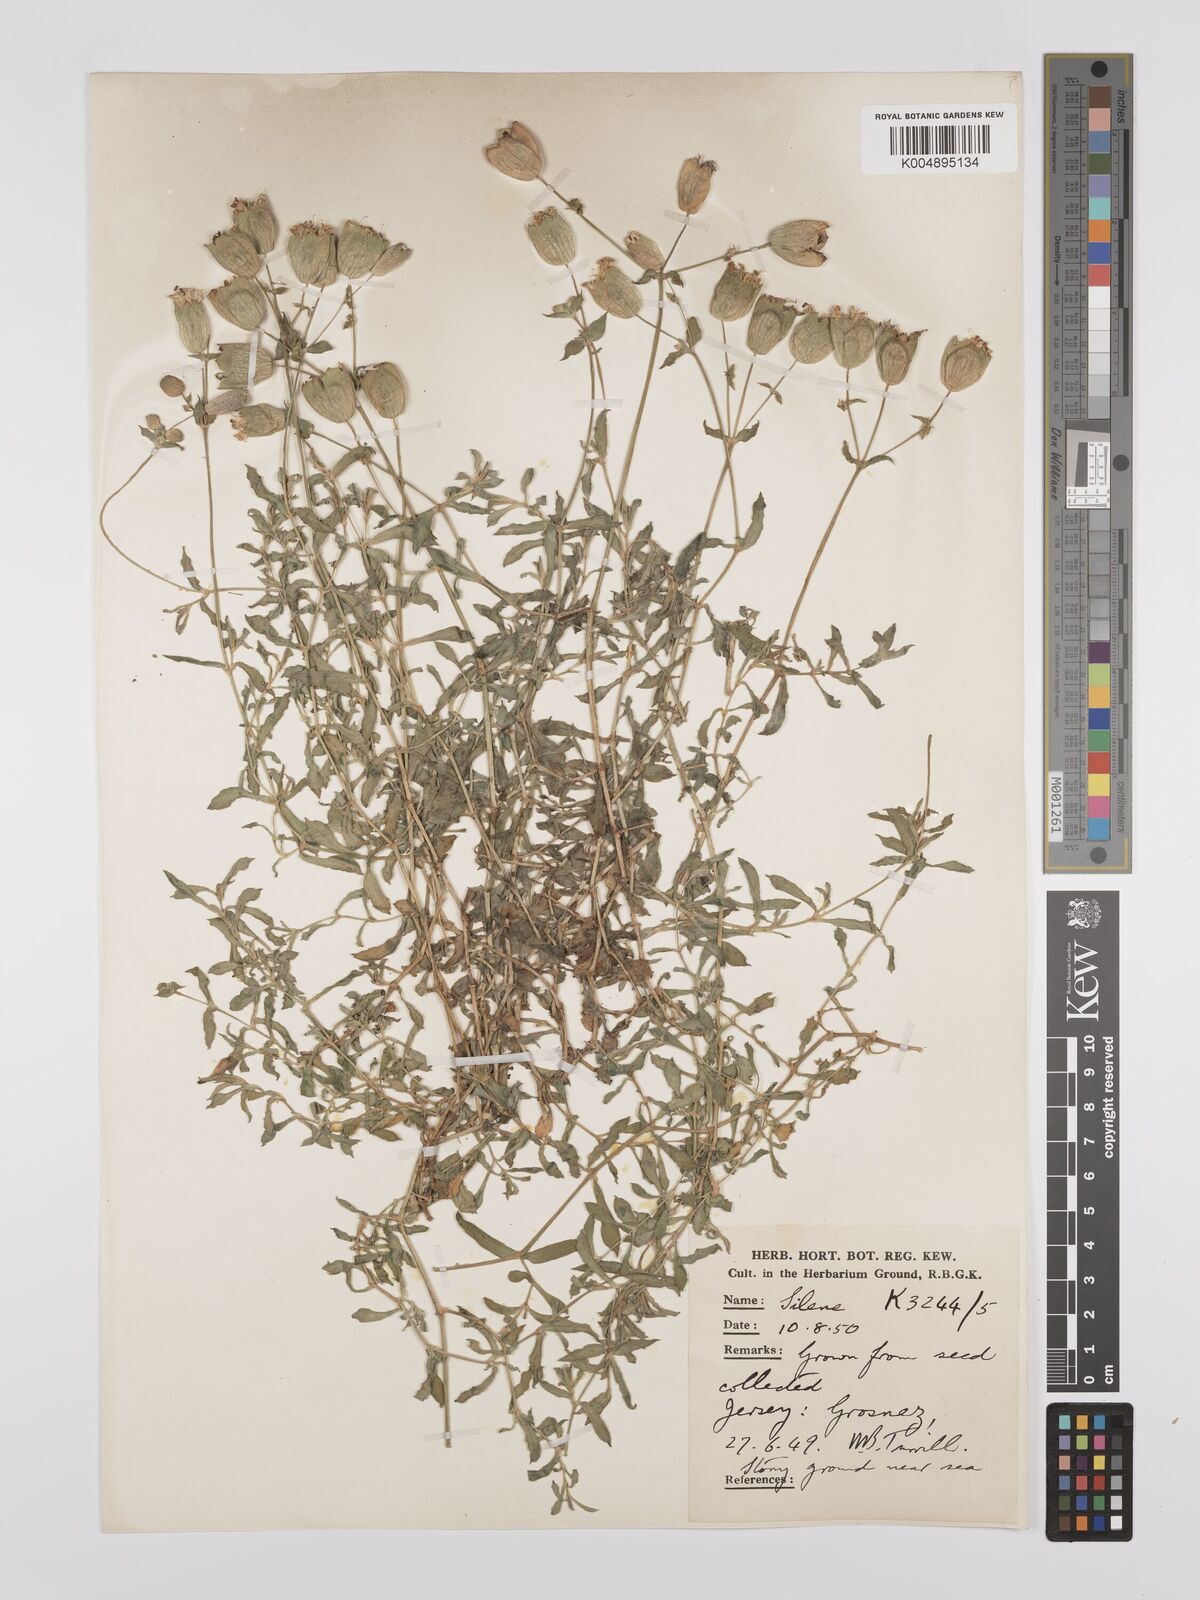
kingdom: Plantae
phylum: Tracheophyta
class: Magnoliopsida
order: Caryophyllales
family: Caryophyllaceae
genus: Silene
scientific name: Silene uniflora
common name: Sea campion
